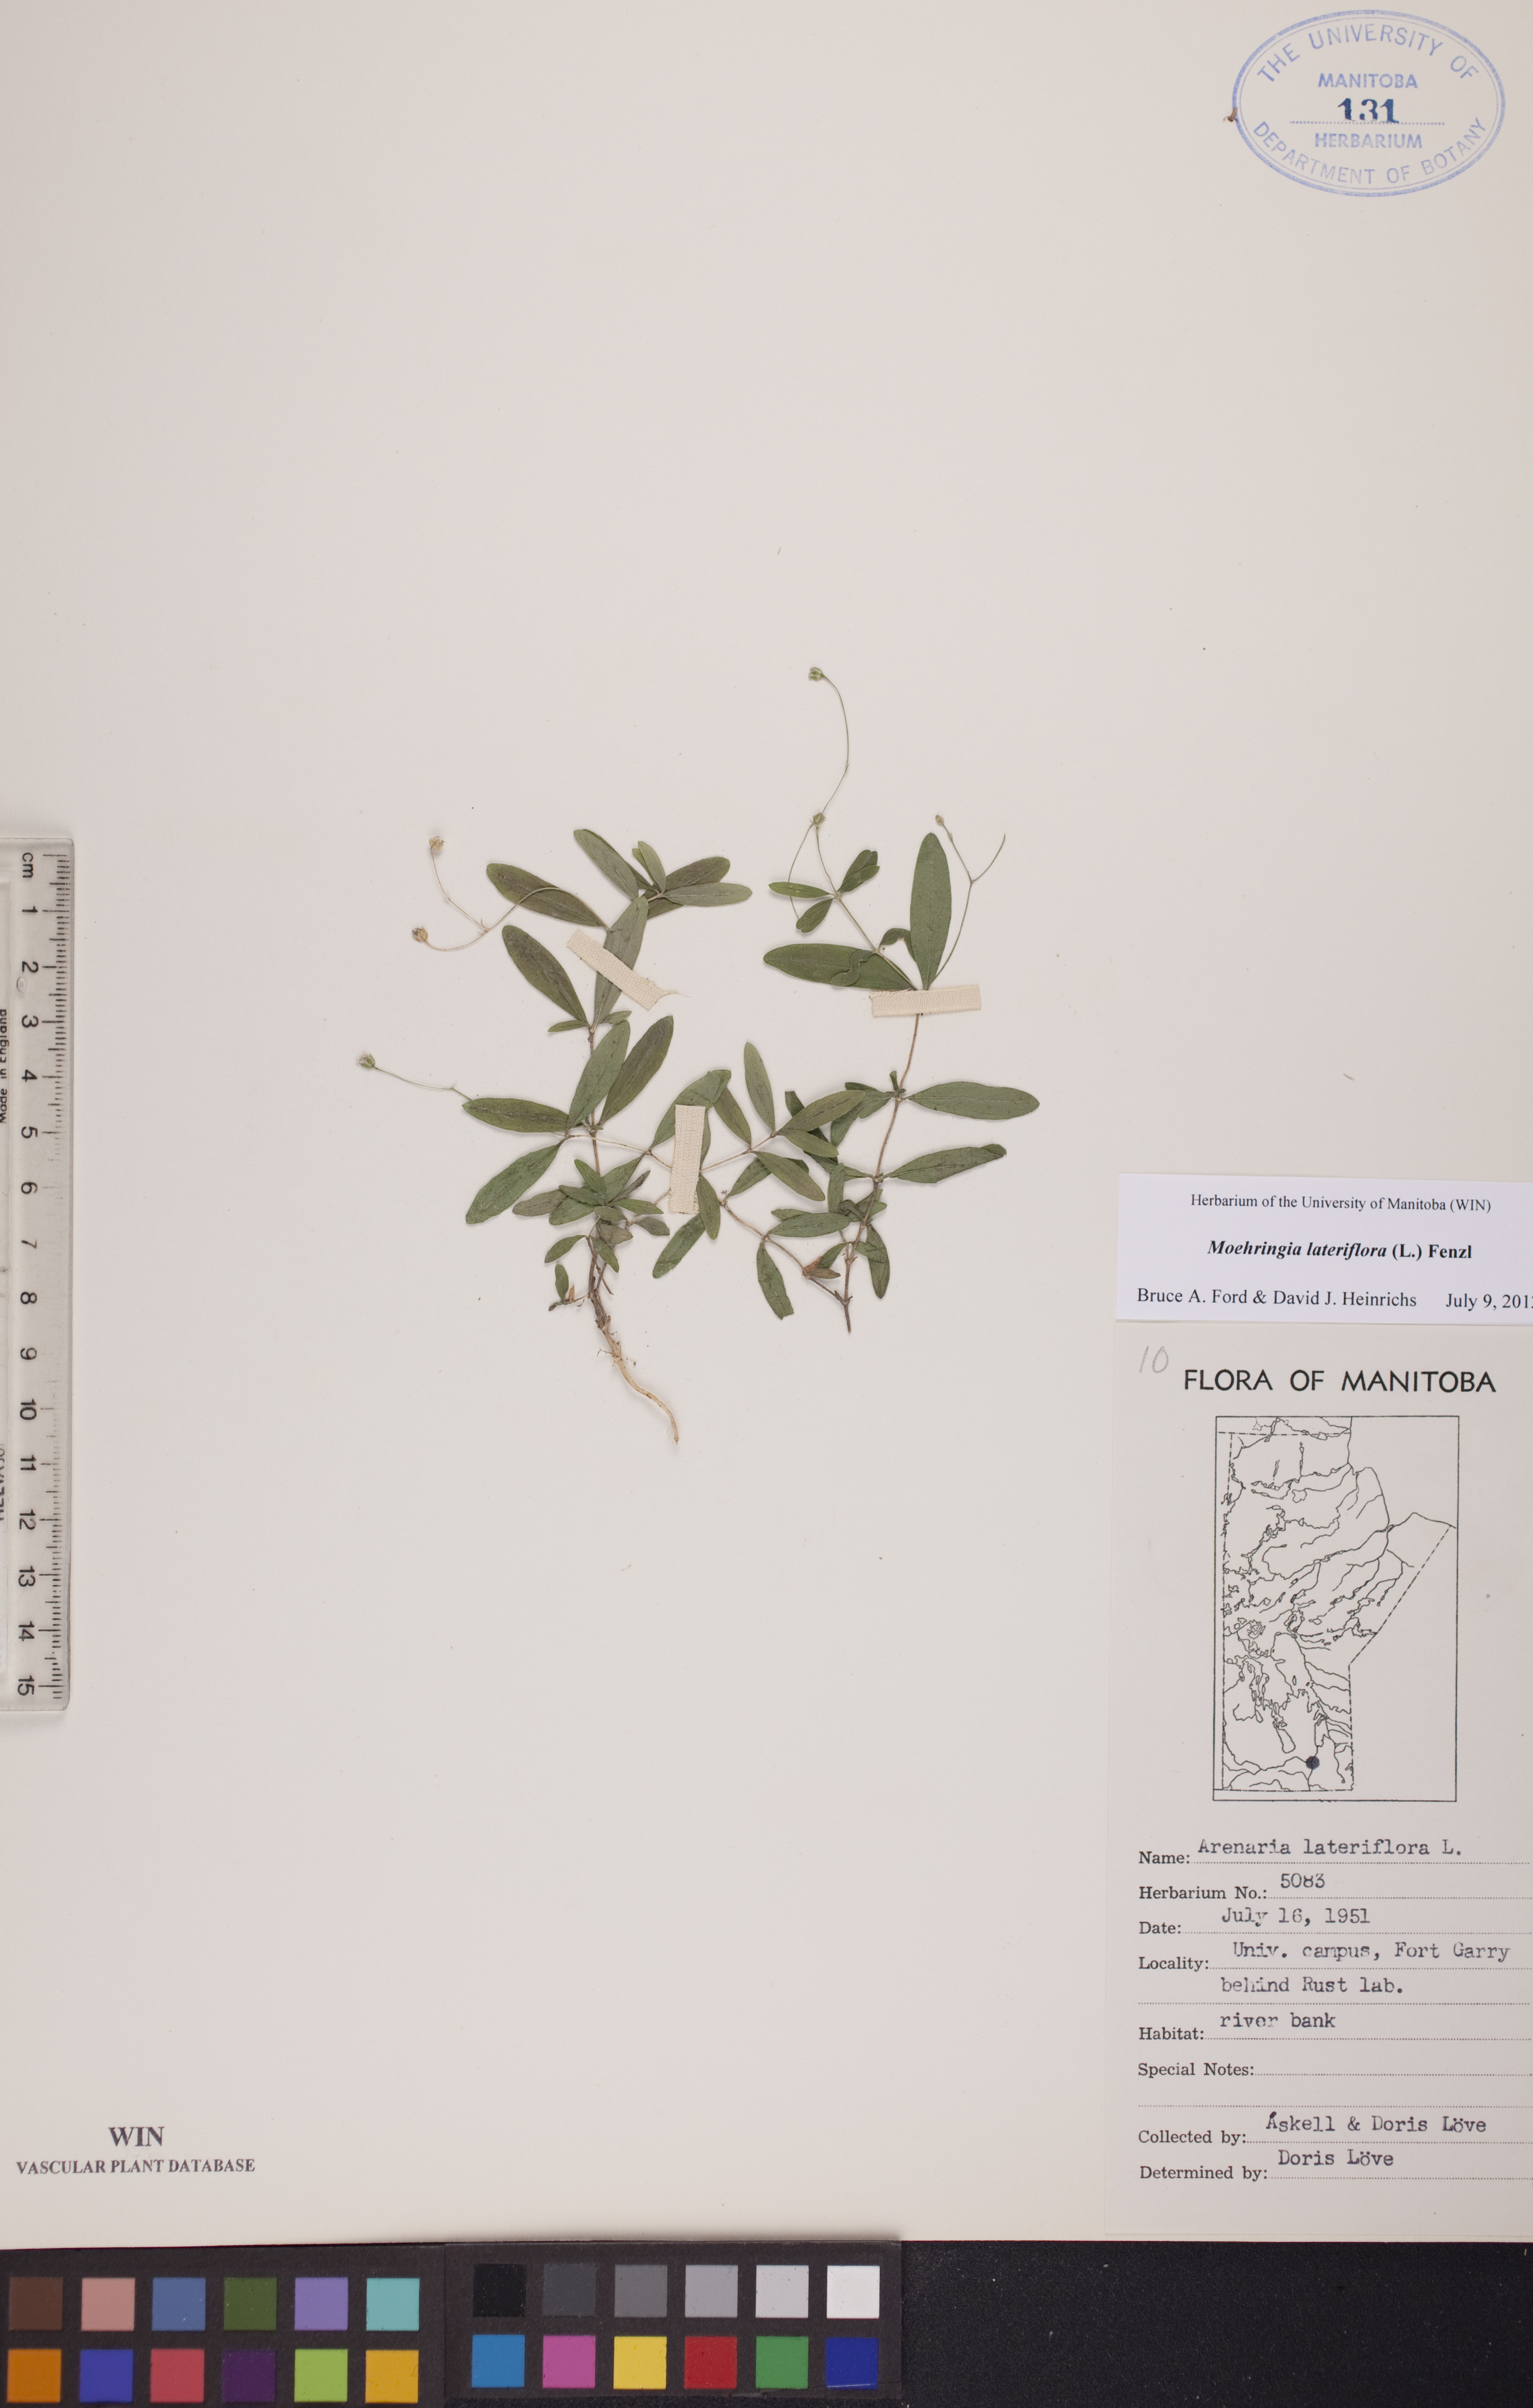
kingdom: Plantae
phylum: Tracheophyta
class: Magnoliopsida
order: Caryophyllales
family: Caryophyllaceae
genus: Moehringia
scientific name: Moehringia lateriflora
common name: Blunt-leaved sandwort
